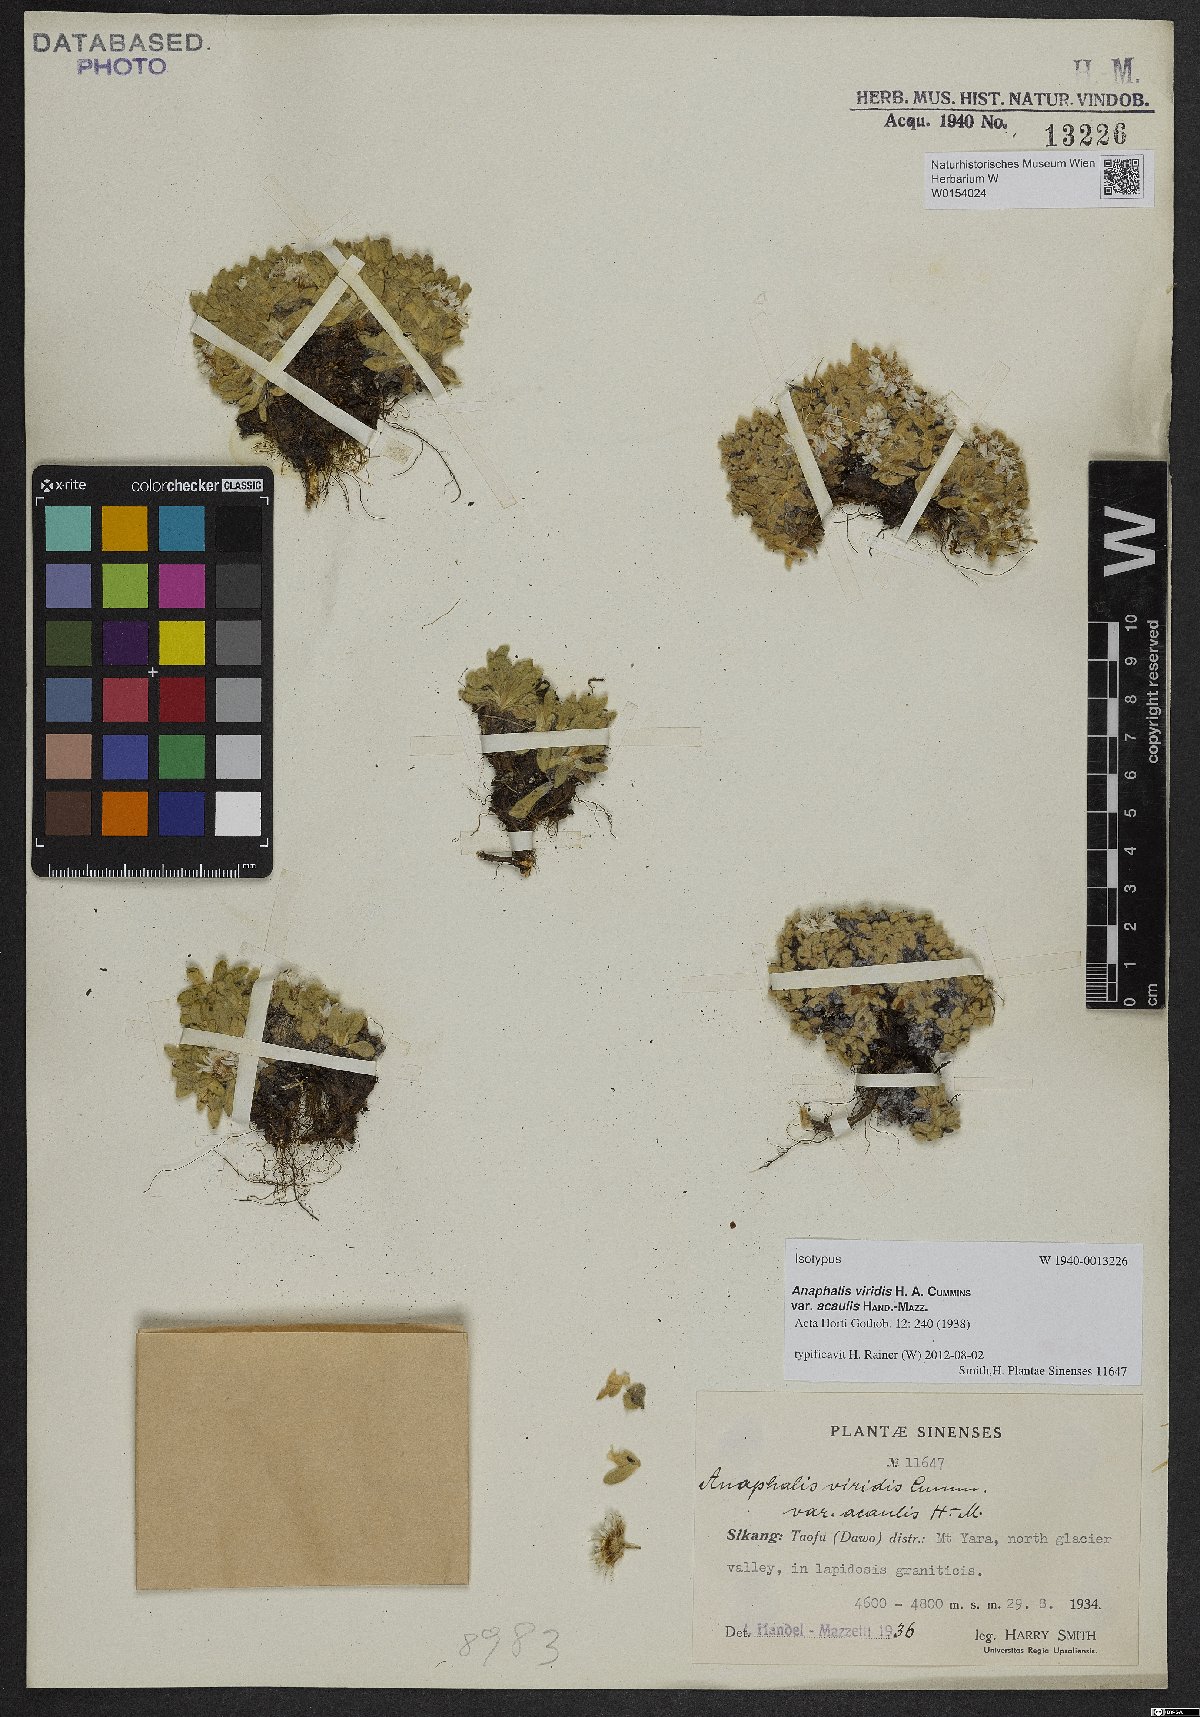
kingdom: Plantae
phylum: Tracheophyta
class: Magnoliopsida
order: Asterales
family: Asteraceae
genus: Anaphalis
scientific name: Anaphalis viridis
